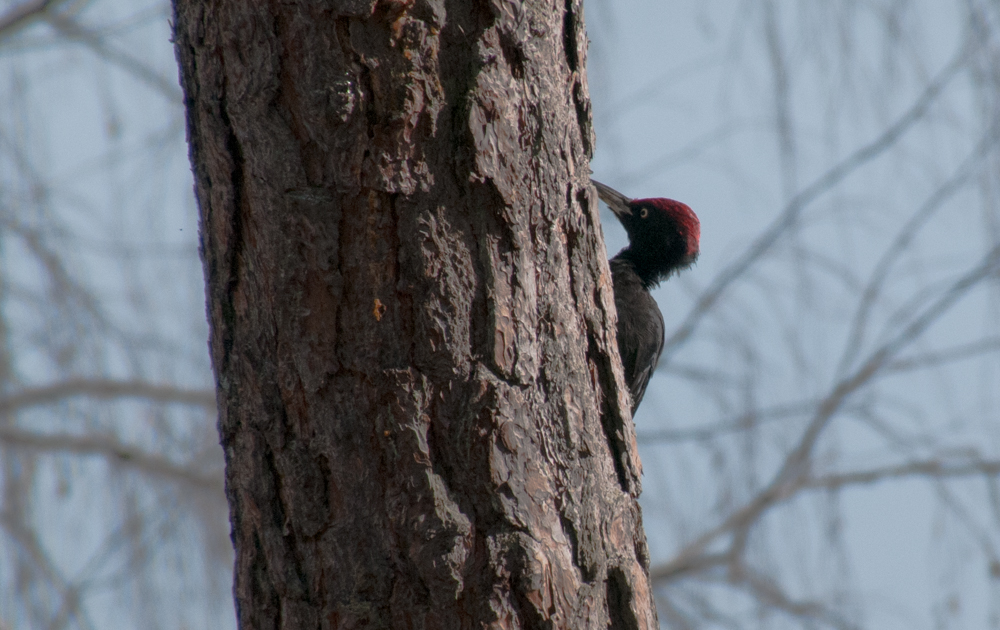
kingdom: Animalia
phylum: Chordata
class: Aves
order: Piciformes
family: Picidae
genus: Dryocopus
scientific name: Dryocopus martius
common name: Black woodpecker
